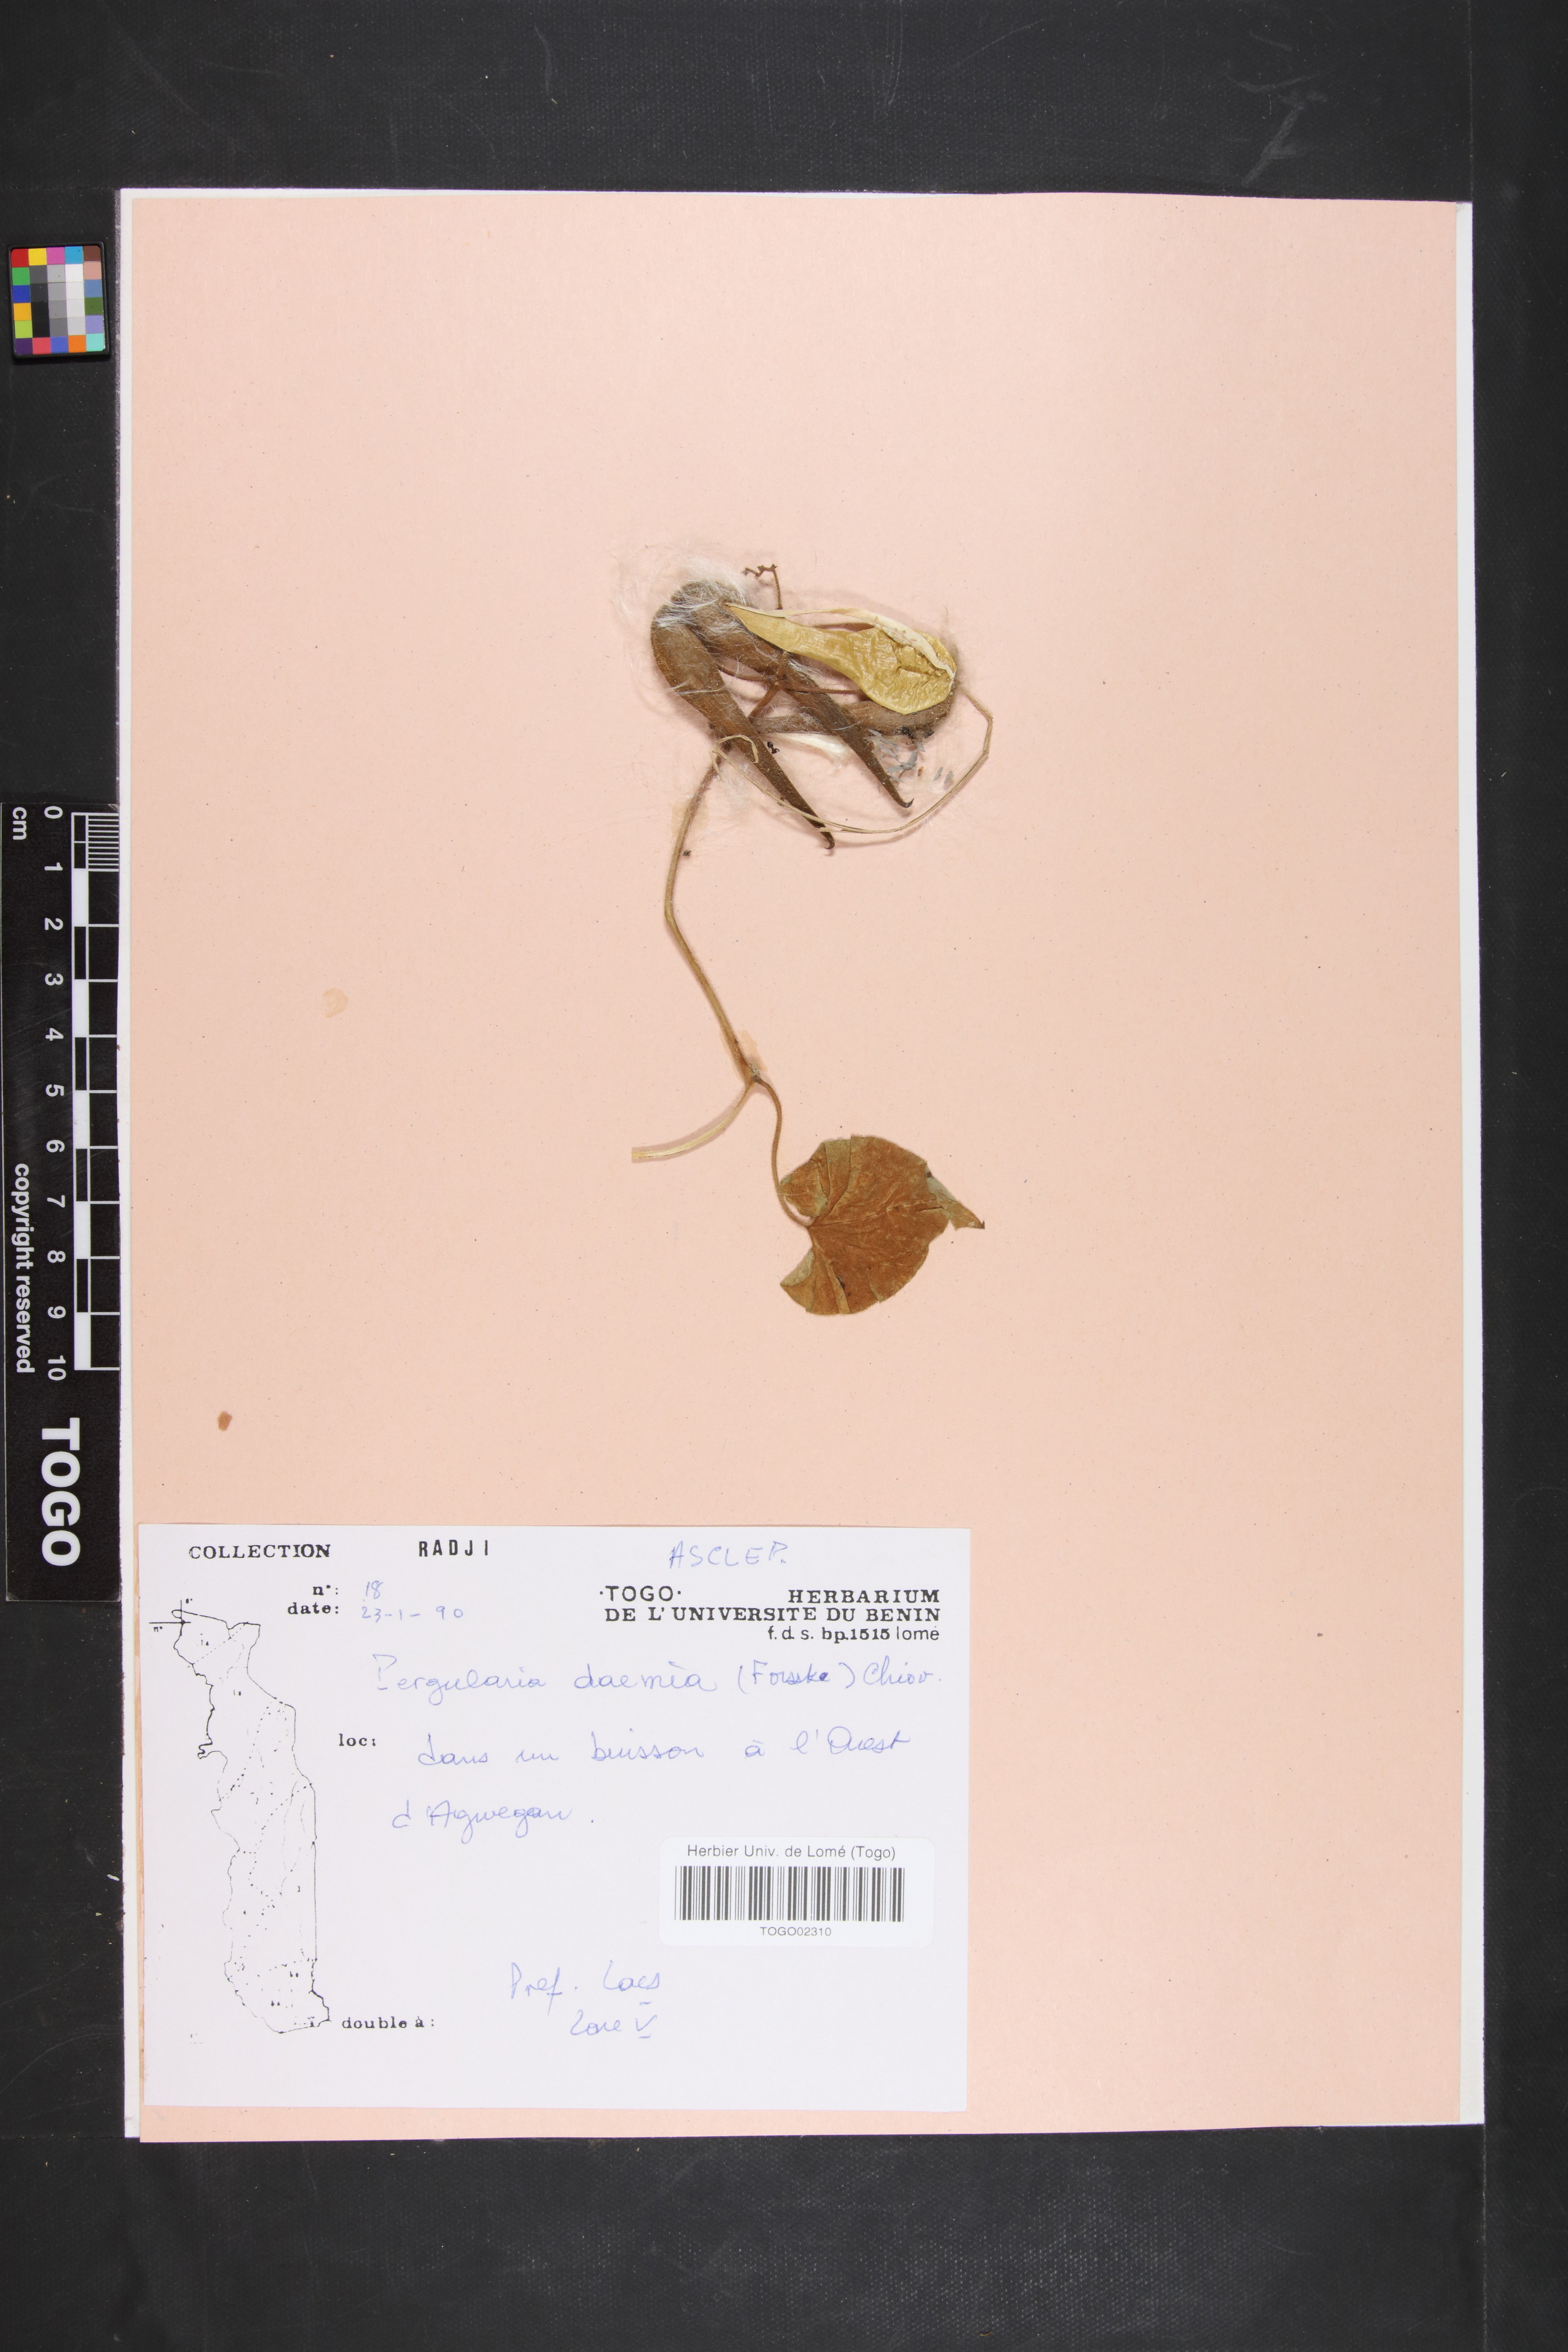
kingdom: Plantae
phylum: Tracheophyta
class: Magnoliopsida
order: Gentianales
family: Apocynaceae
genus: Pergularia
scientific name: Pergularia daemia
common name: Trellis-vine
